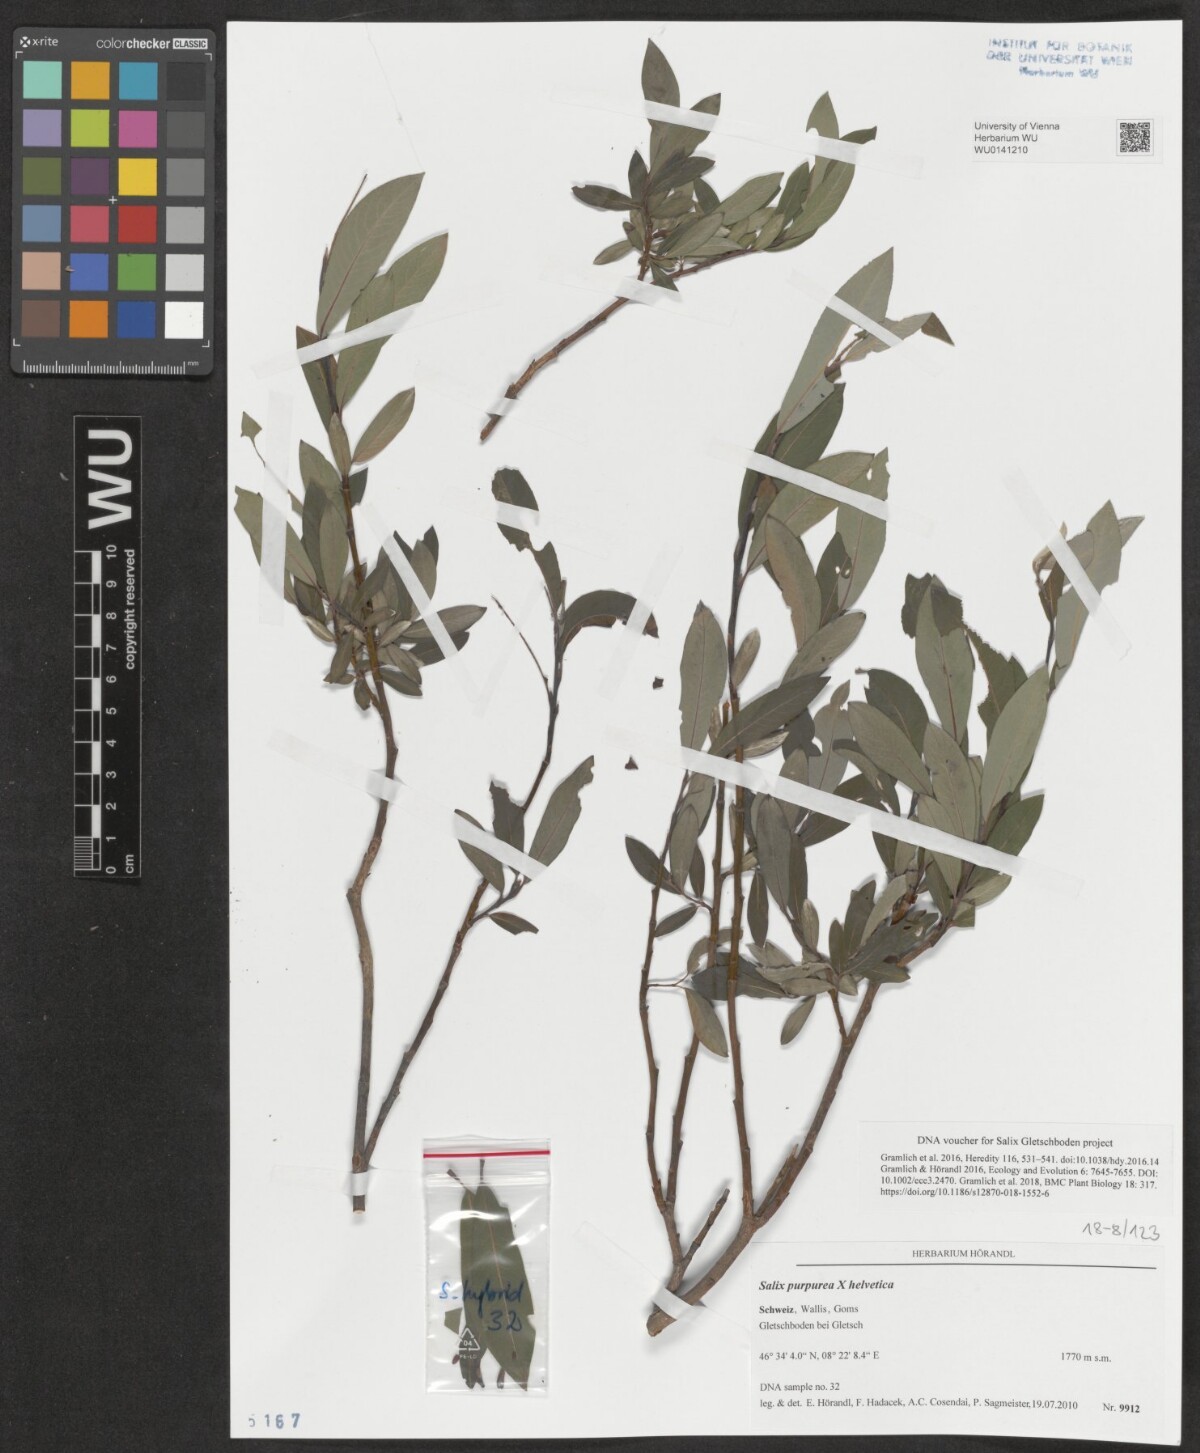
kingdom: Plantae
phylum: Tracheophyta
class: Magnoliopsida
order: Malpighiales
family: Salicaceae
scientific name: Salicaceae
